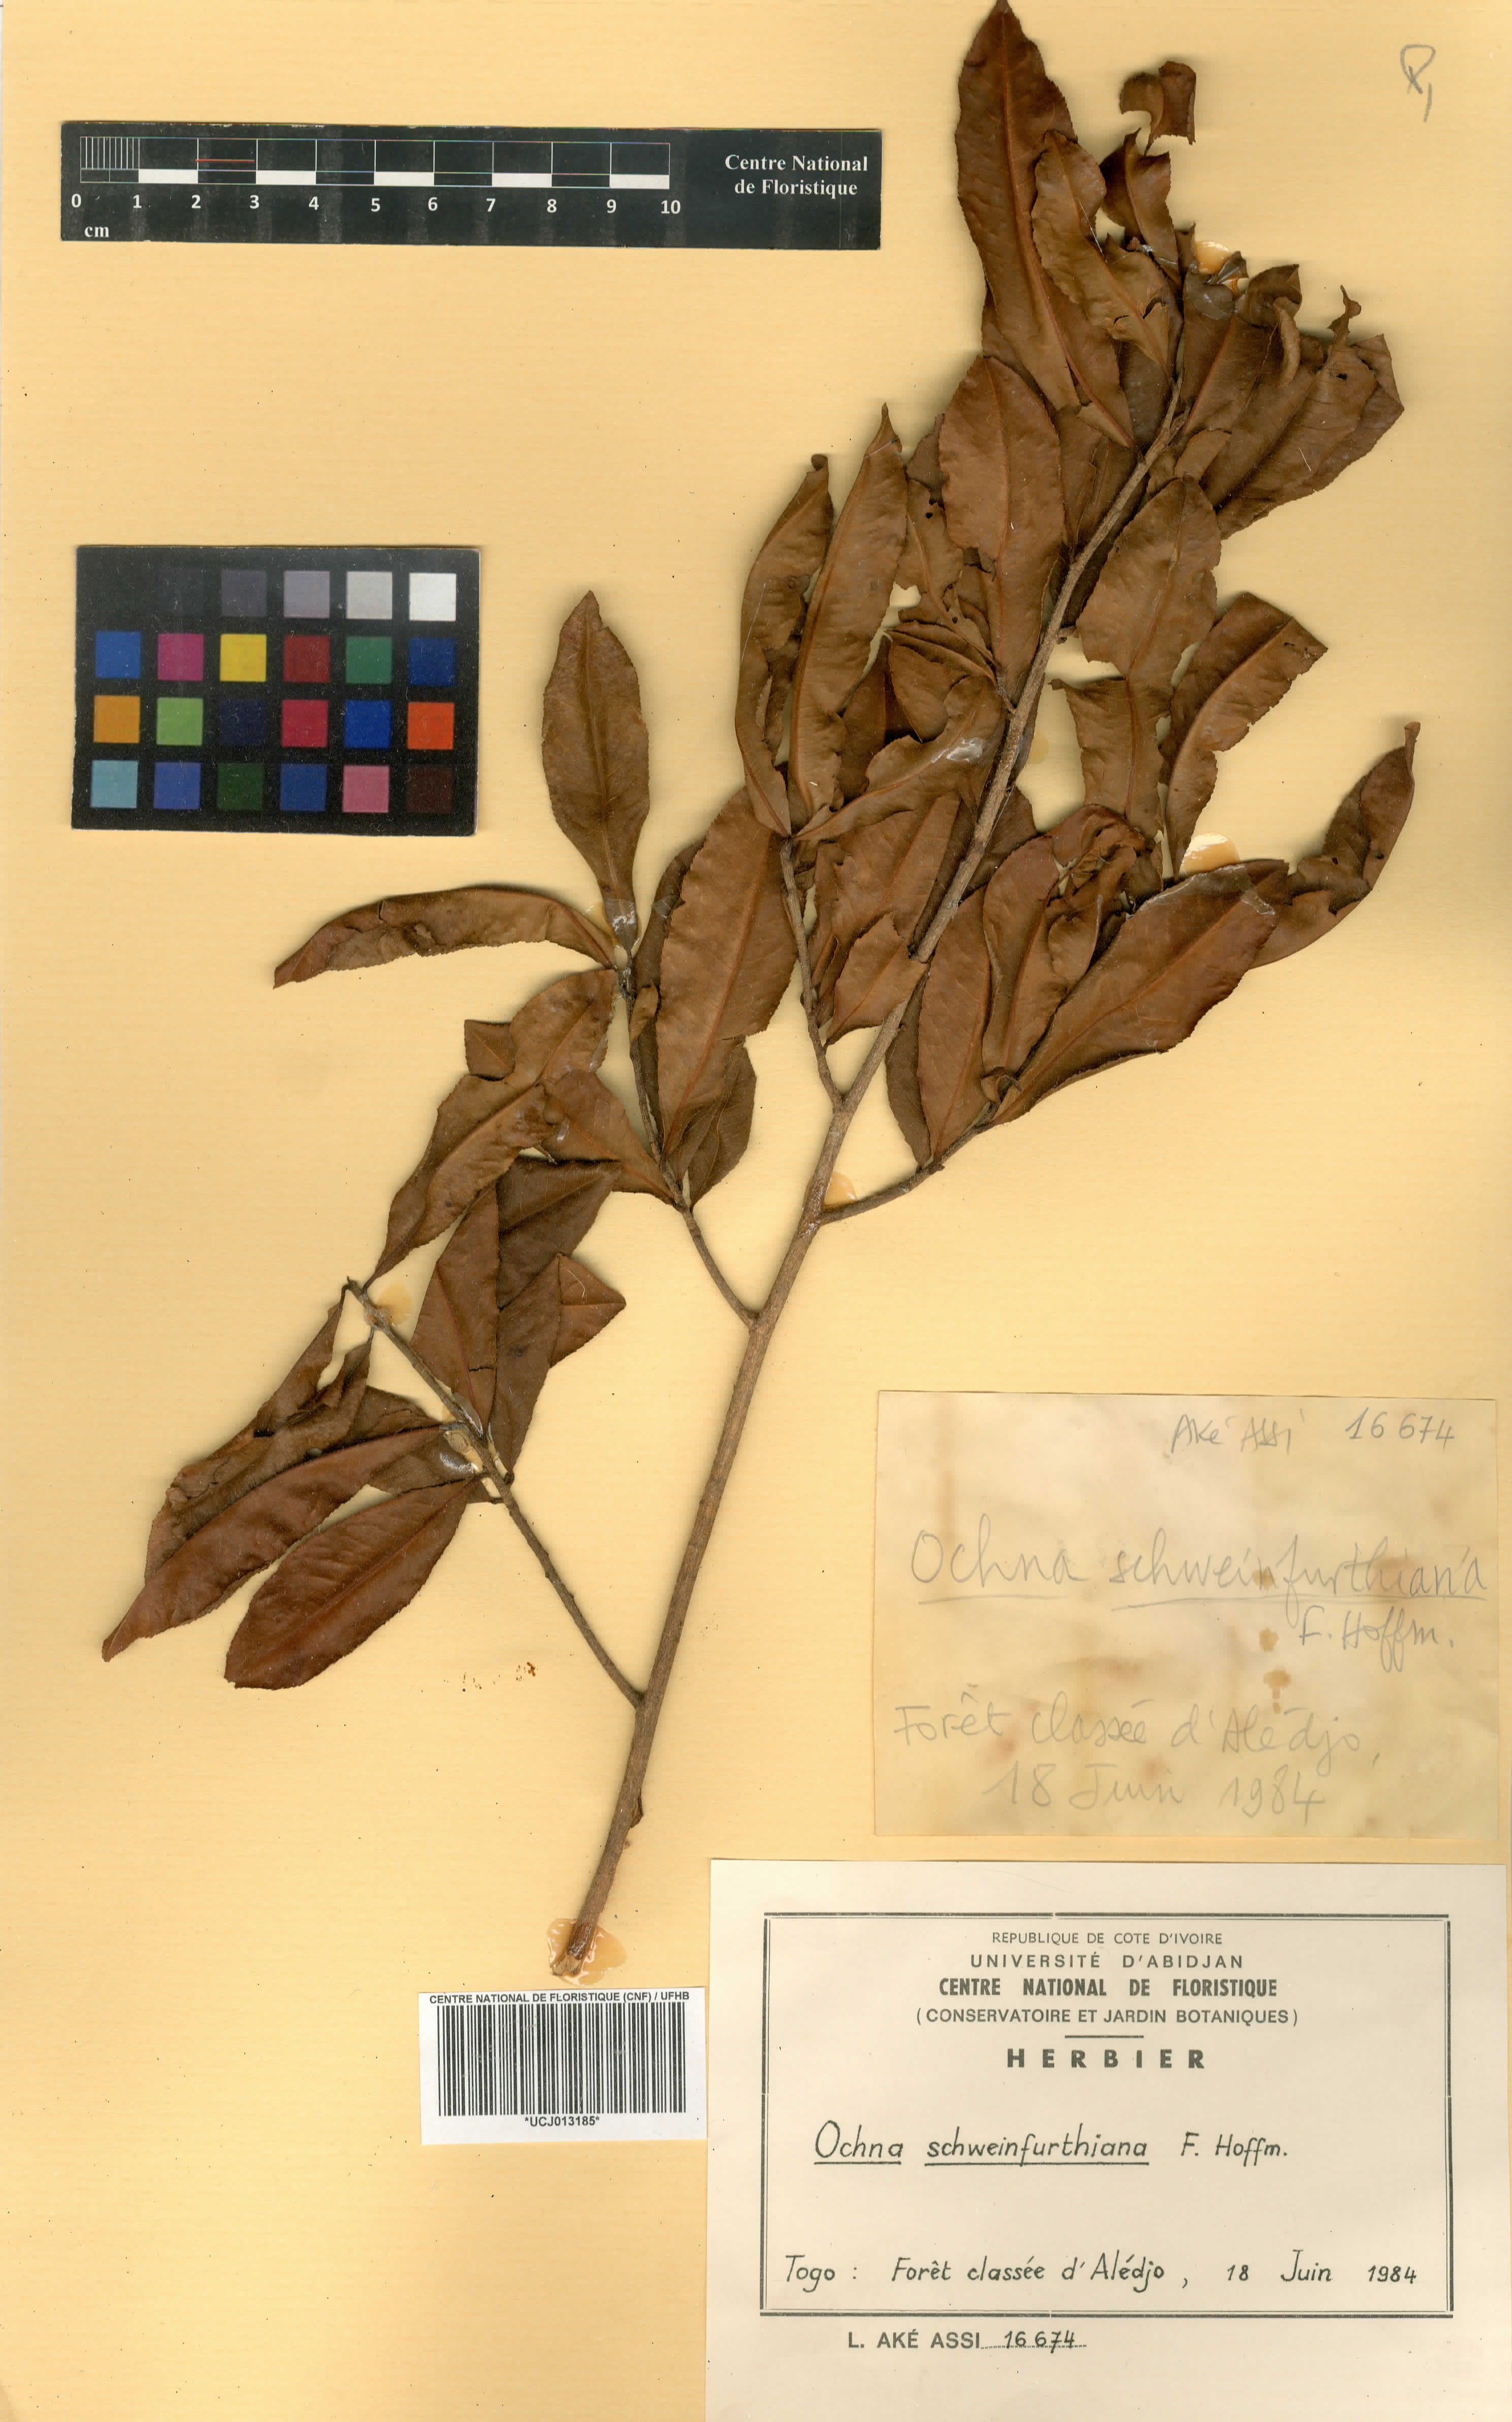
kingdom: Plantae
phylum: Tracheophyta
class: Magnoliopsida
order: Malpighiales
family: Ochnaceae
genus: Ochna
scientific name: Ochna schweinfurthiana
